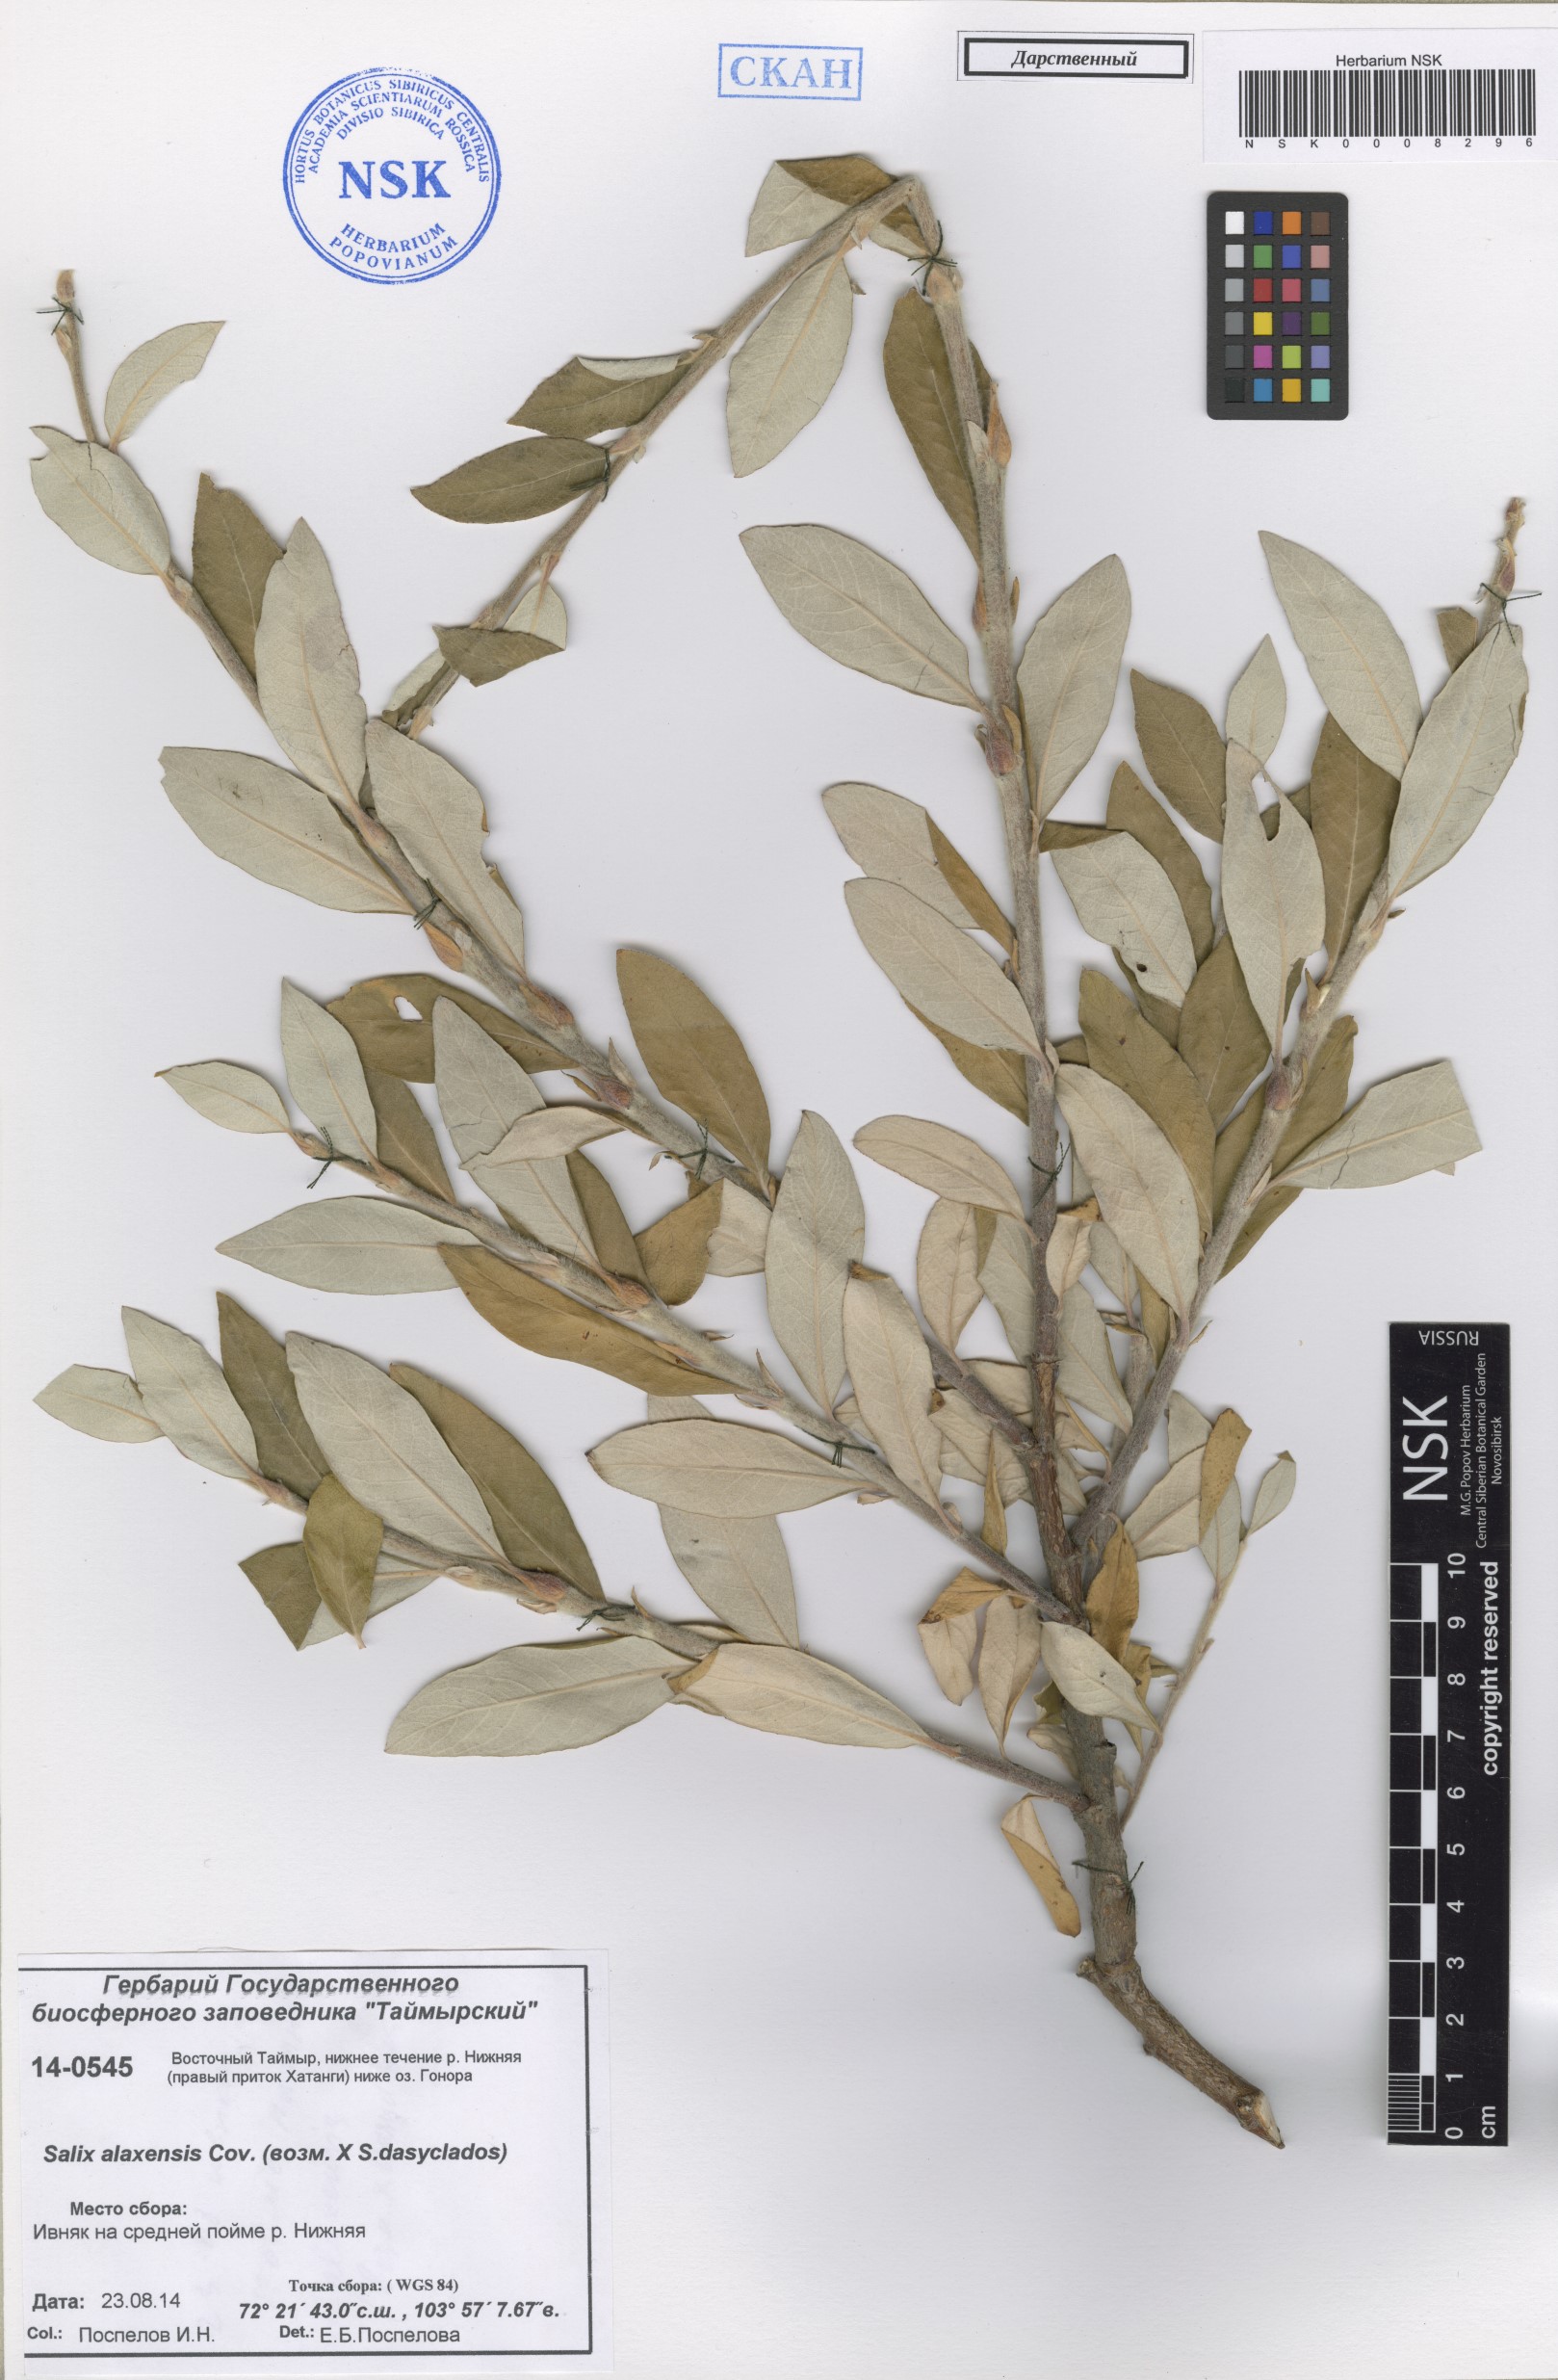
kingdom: Plantae
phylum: Tracheophyta
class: Magnoliopsida
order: Malpighiales
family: Salicaceae
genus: Salix
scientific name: Salix alaxensis
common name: Feltleaf willow
